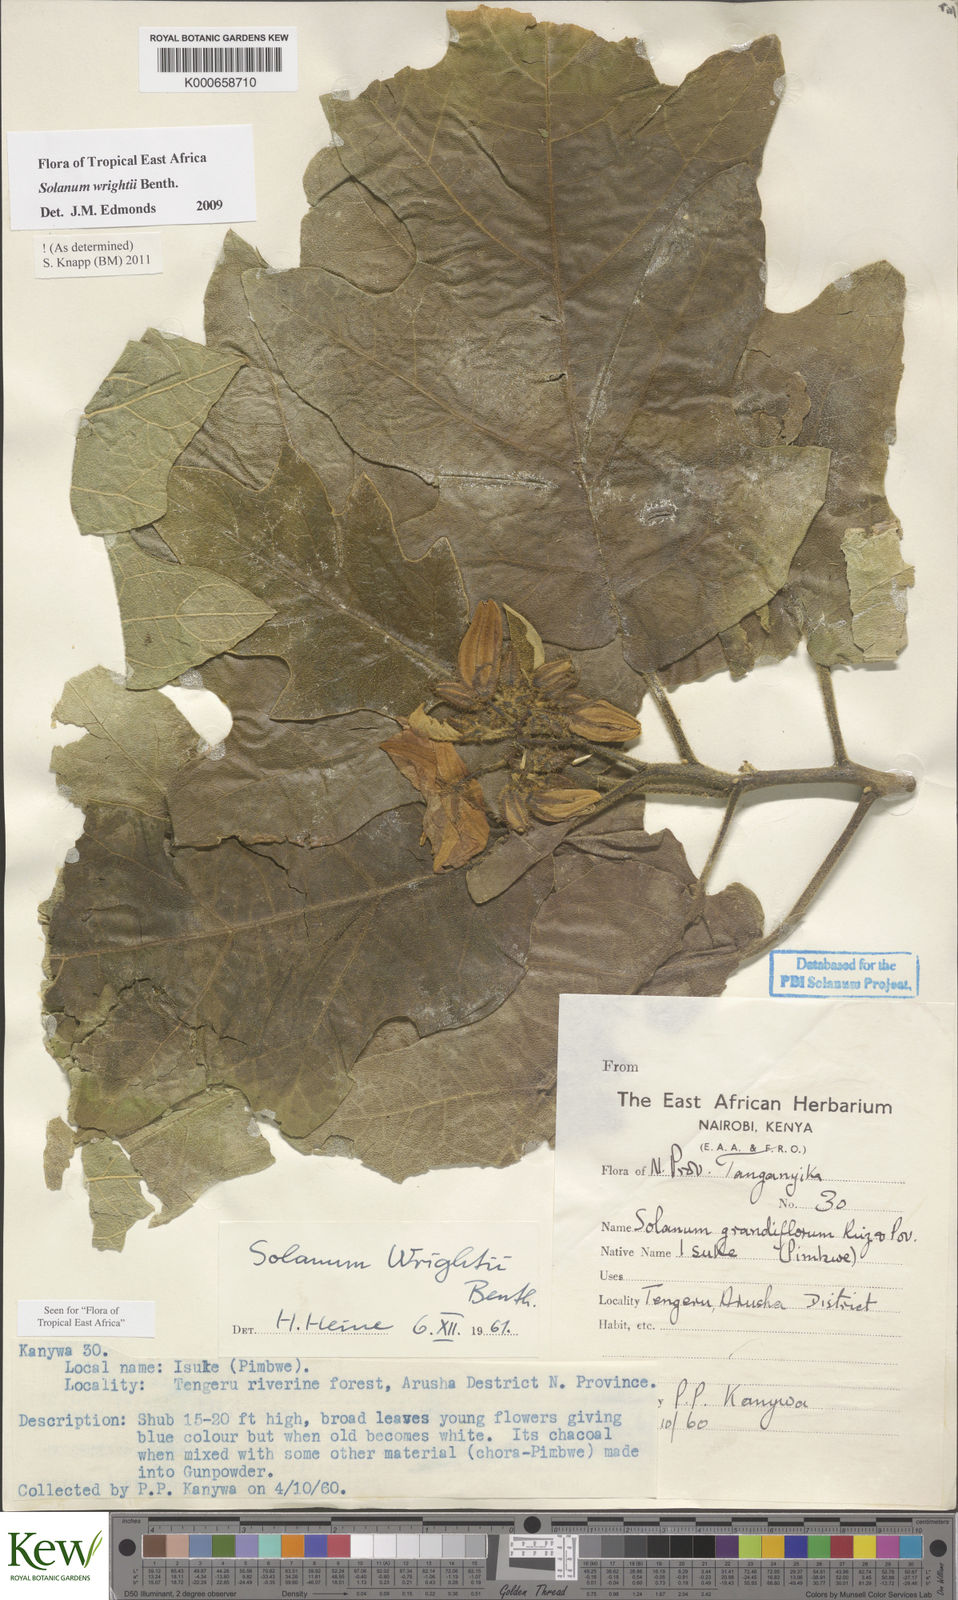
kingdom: Plantae
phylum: Tracheophyta
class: Magnoliopsida
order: Solanales
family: Solanaceae
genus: Solanum
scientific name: Solanum wrightii
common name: Brazilian potato-tree
